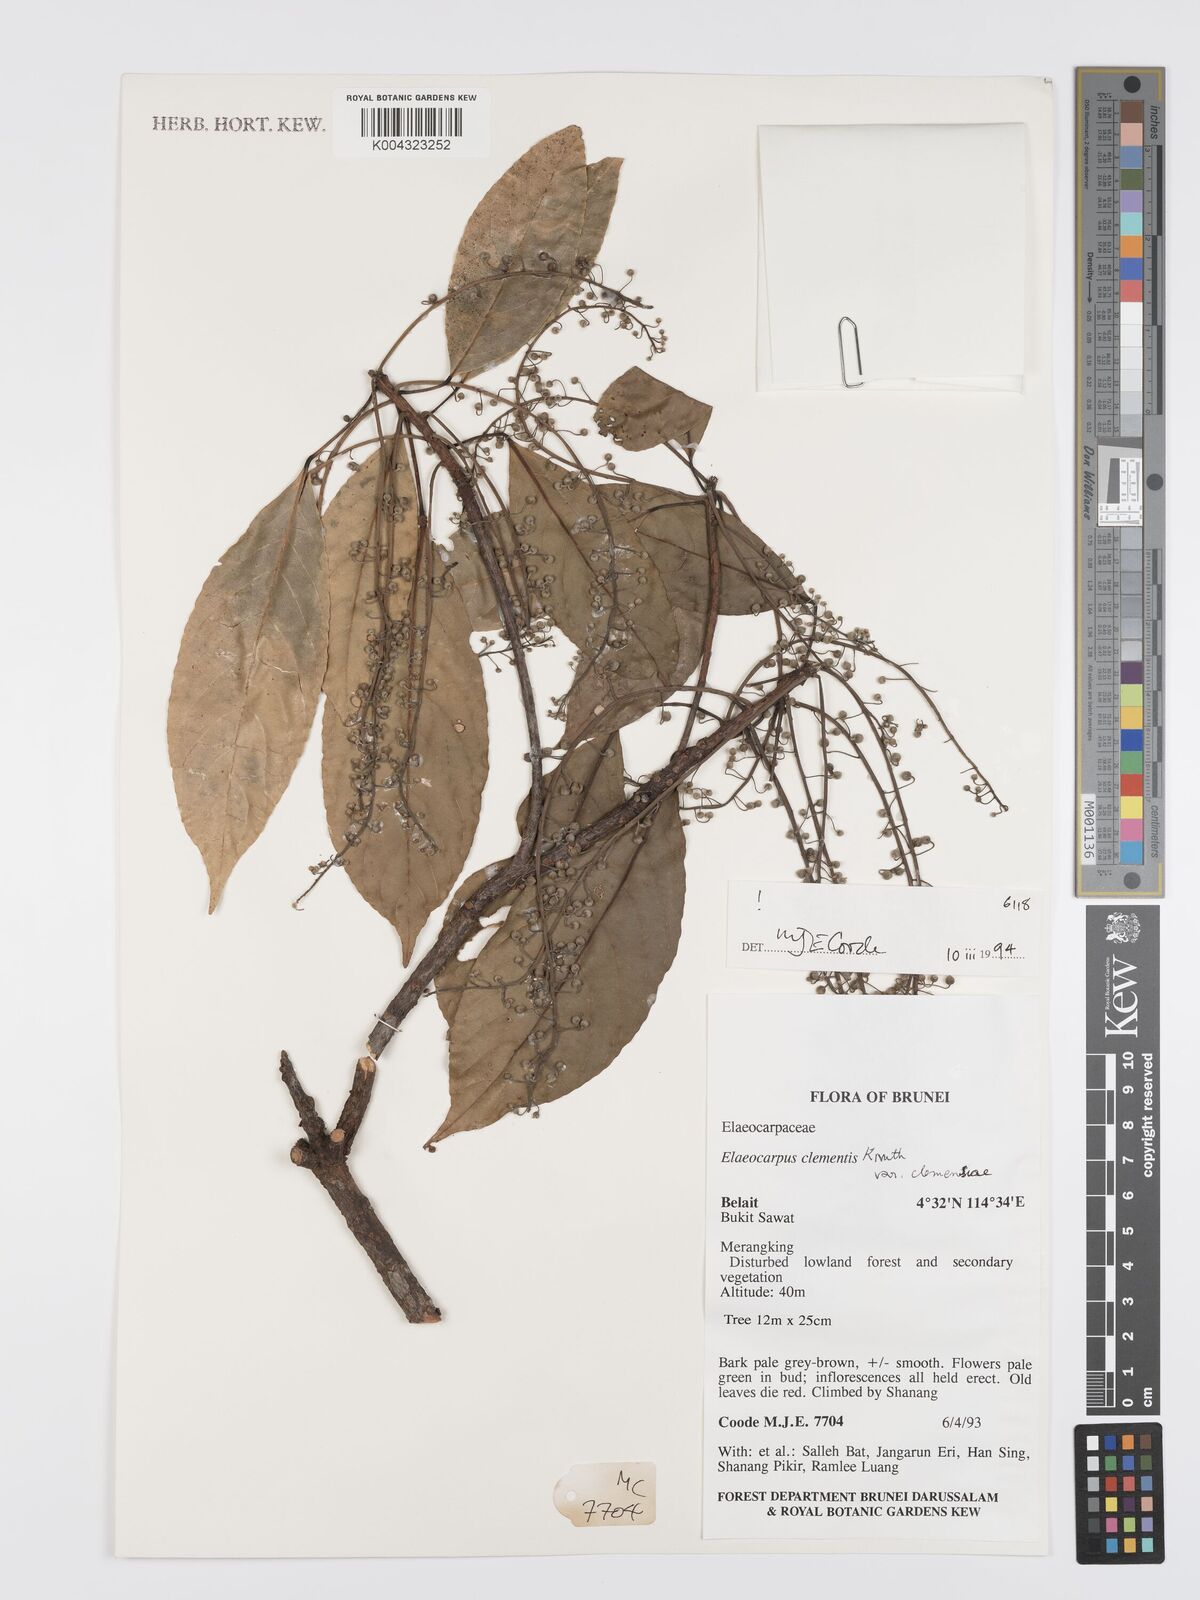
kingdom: Plantae
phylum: Tracheophyta
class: Magnoliopsida
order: Oxalidales
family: Elaeocarpaceae
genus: Elaeocarpus
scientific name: Elaeocarpus clementis
